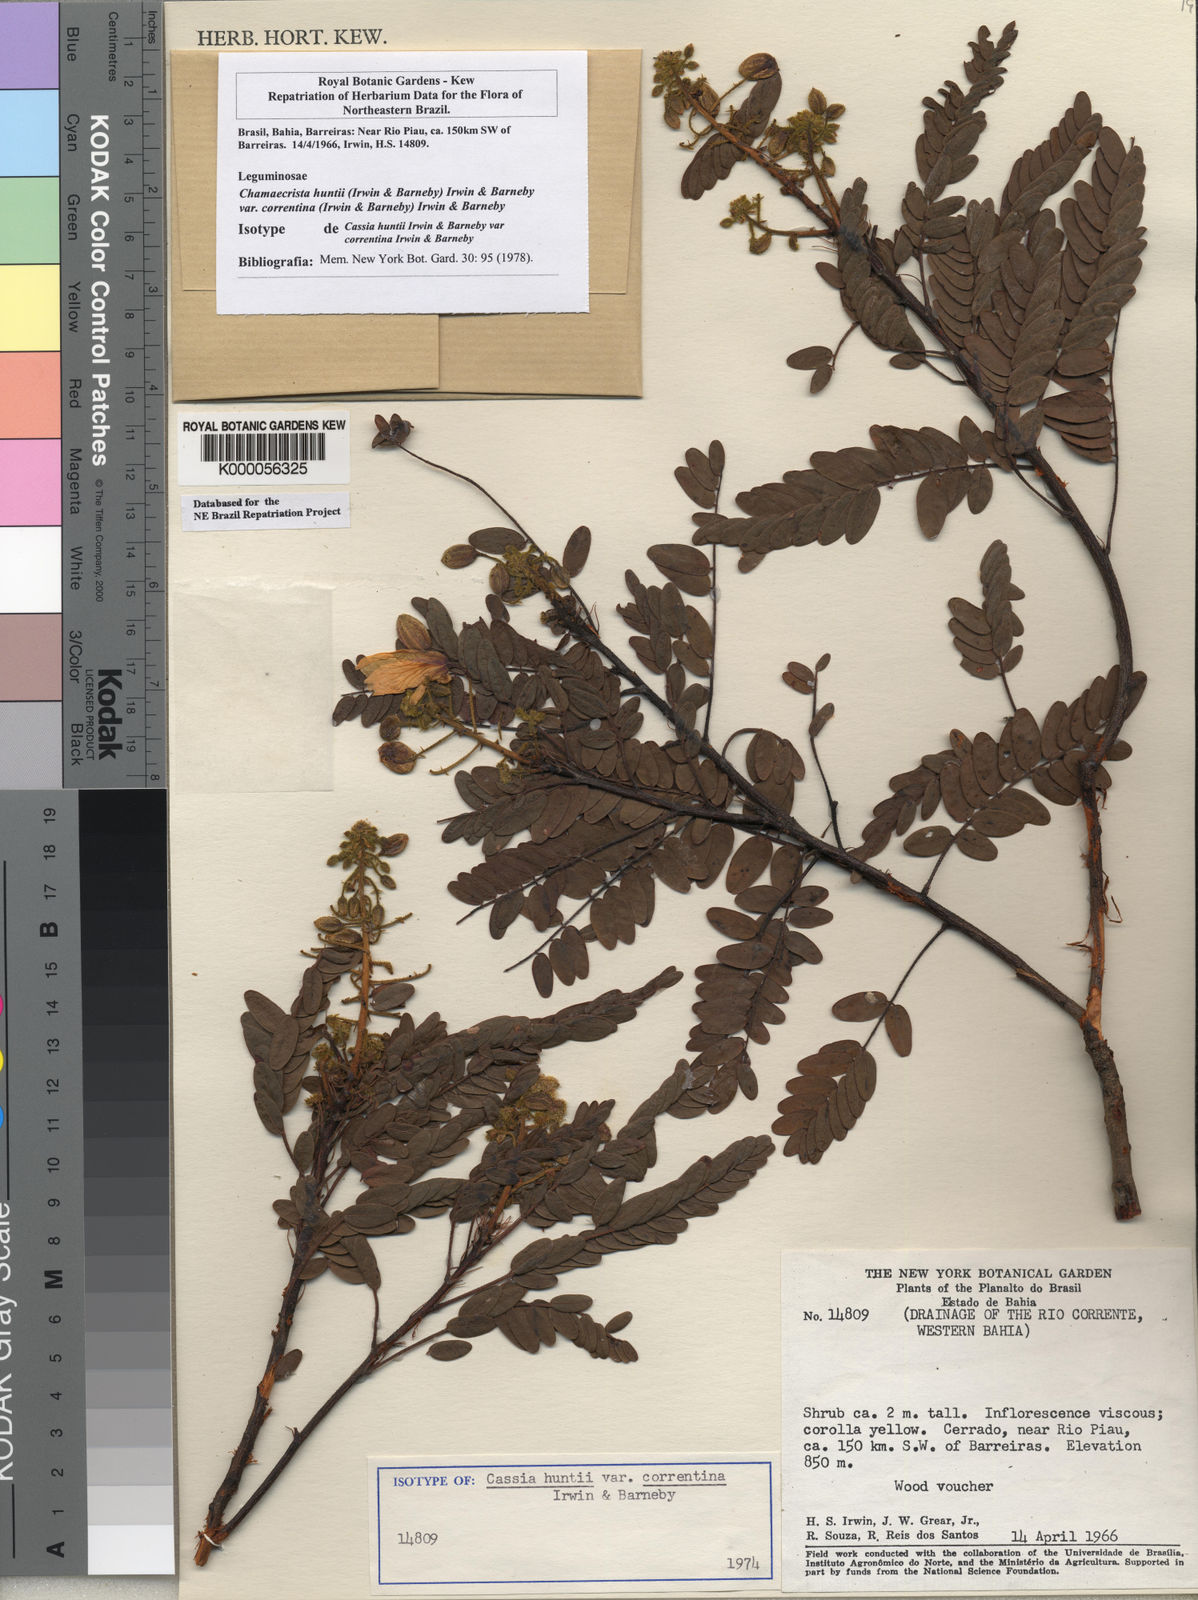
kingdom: Plantae
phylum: Tracheophyta
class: Magnoliopsida
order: Fabales
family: Fabaceae
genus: Chamaecrista
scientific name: Chamaecrista huntii
